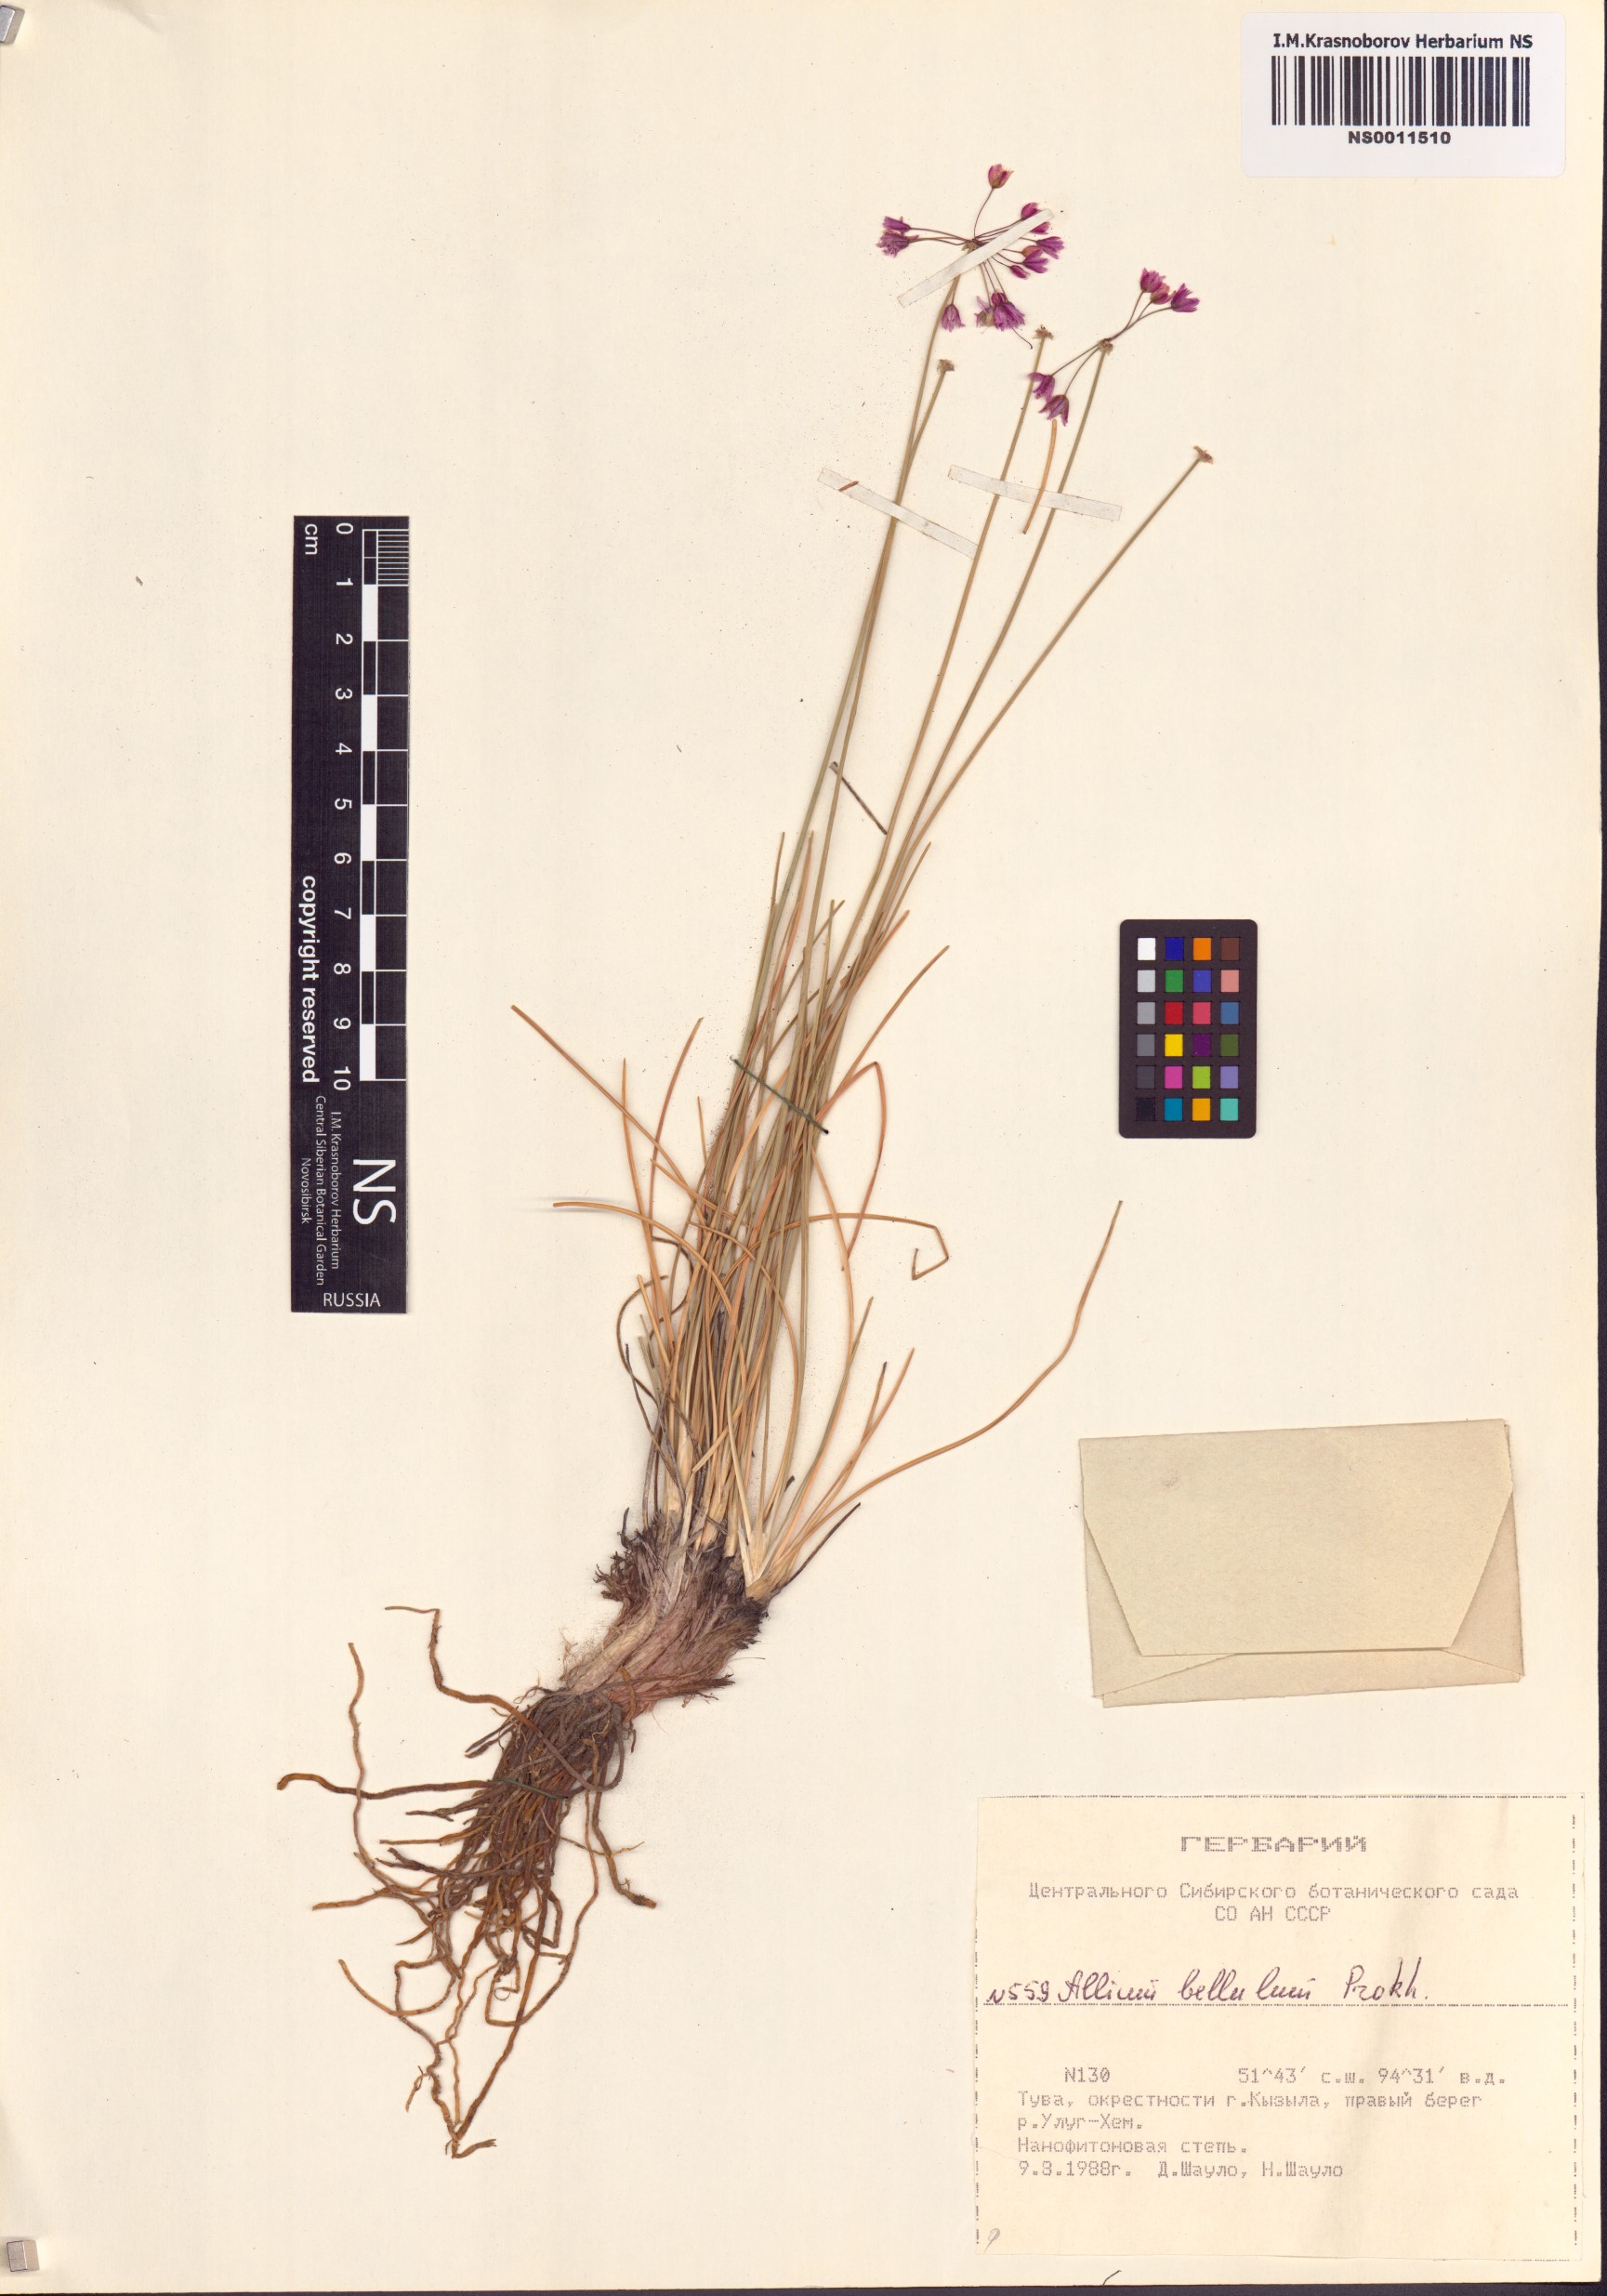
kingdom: Plantae
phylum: Tracheophyta
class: Liliopsida
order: Asparagales
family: Amaryllidaceae
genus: Allium
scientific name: Allium bellulum
